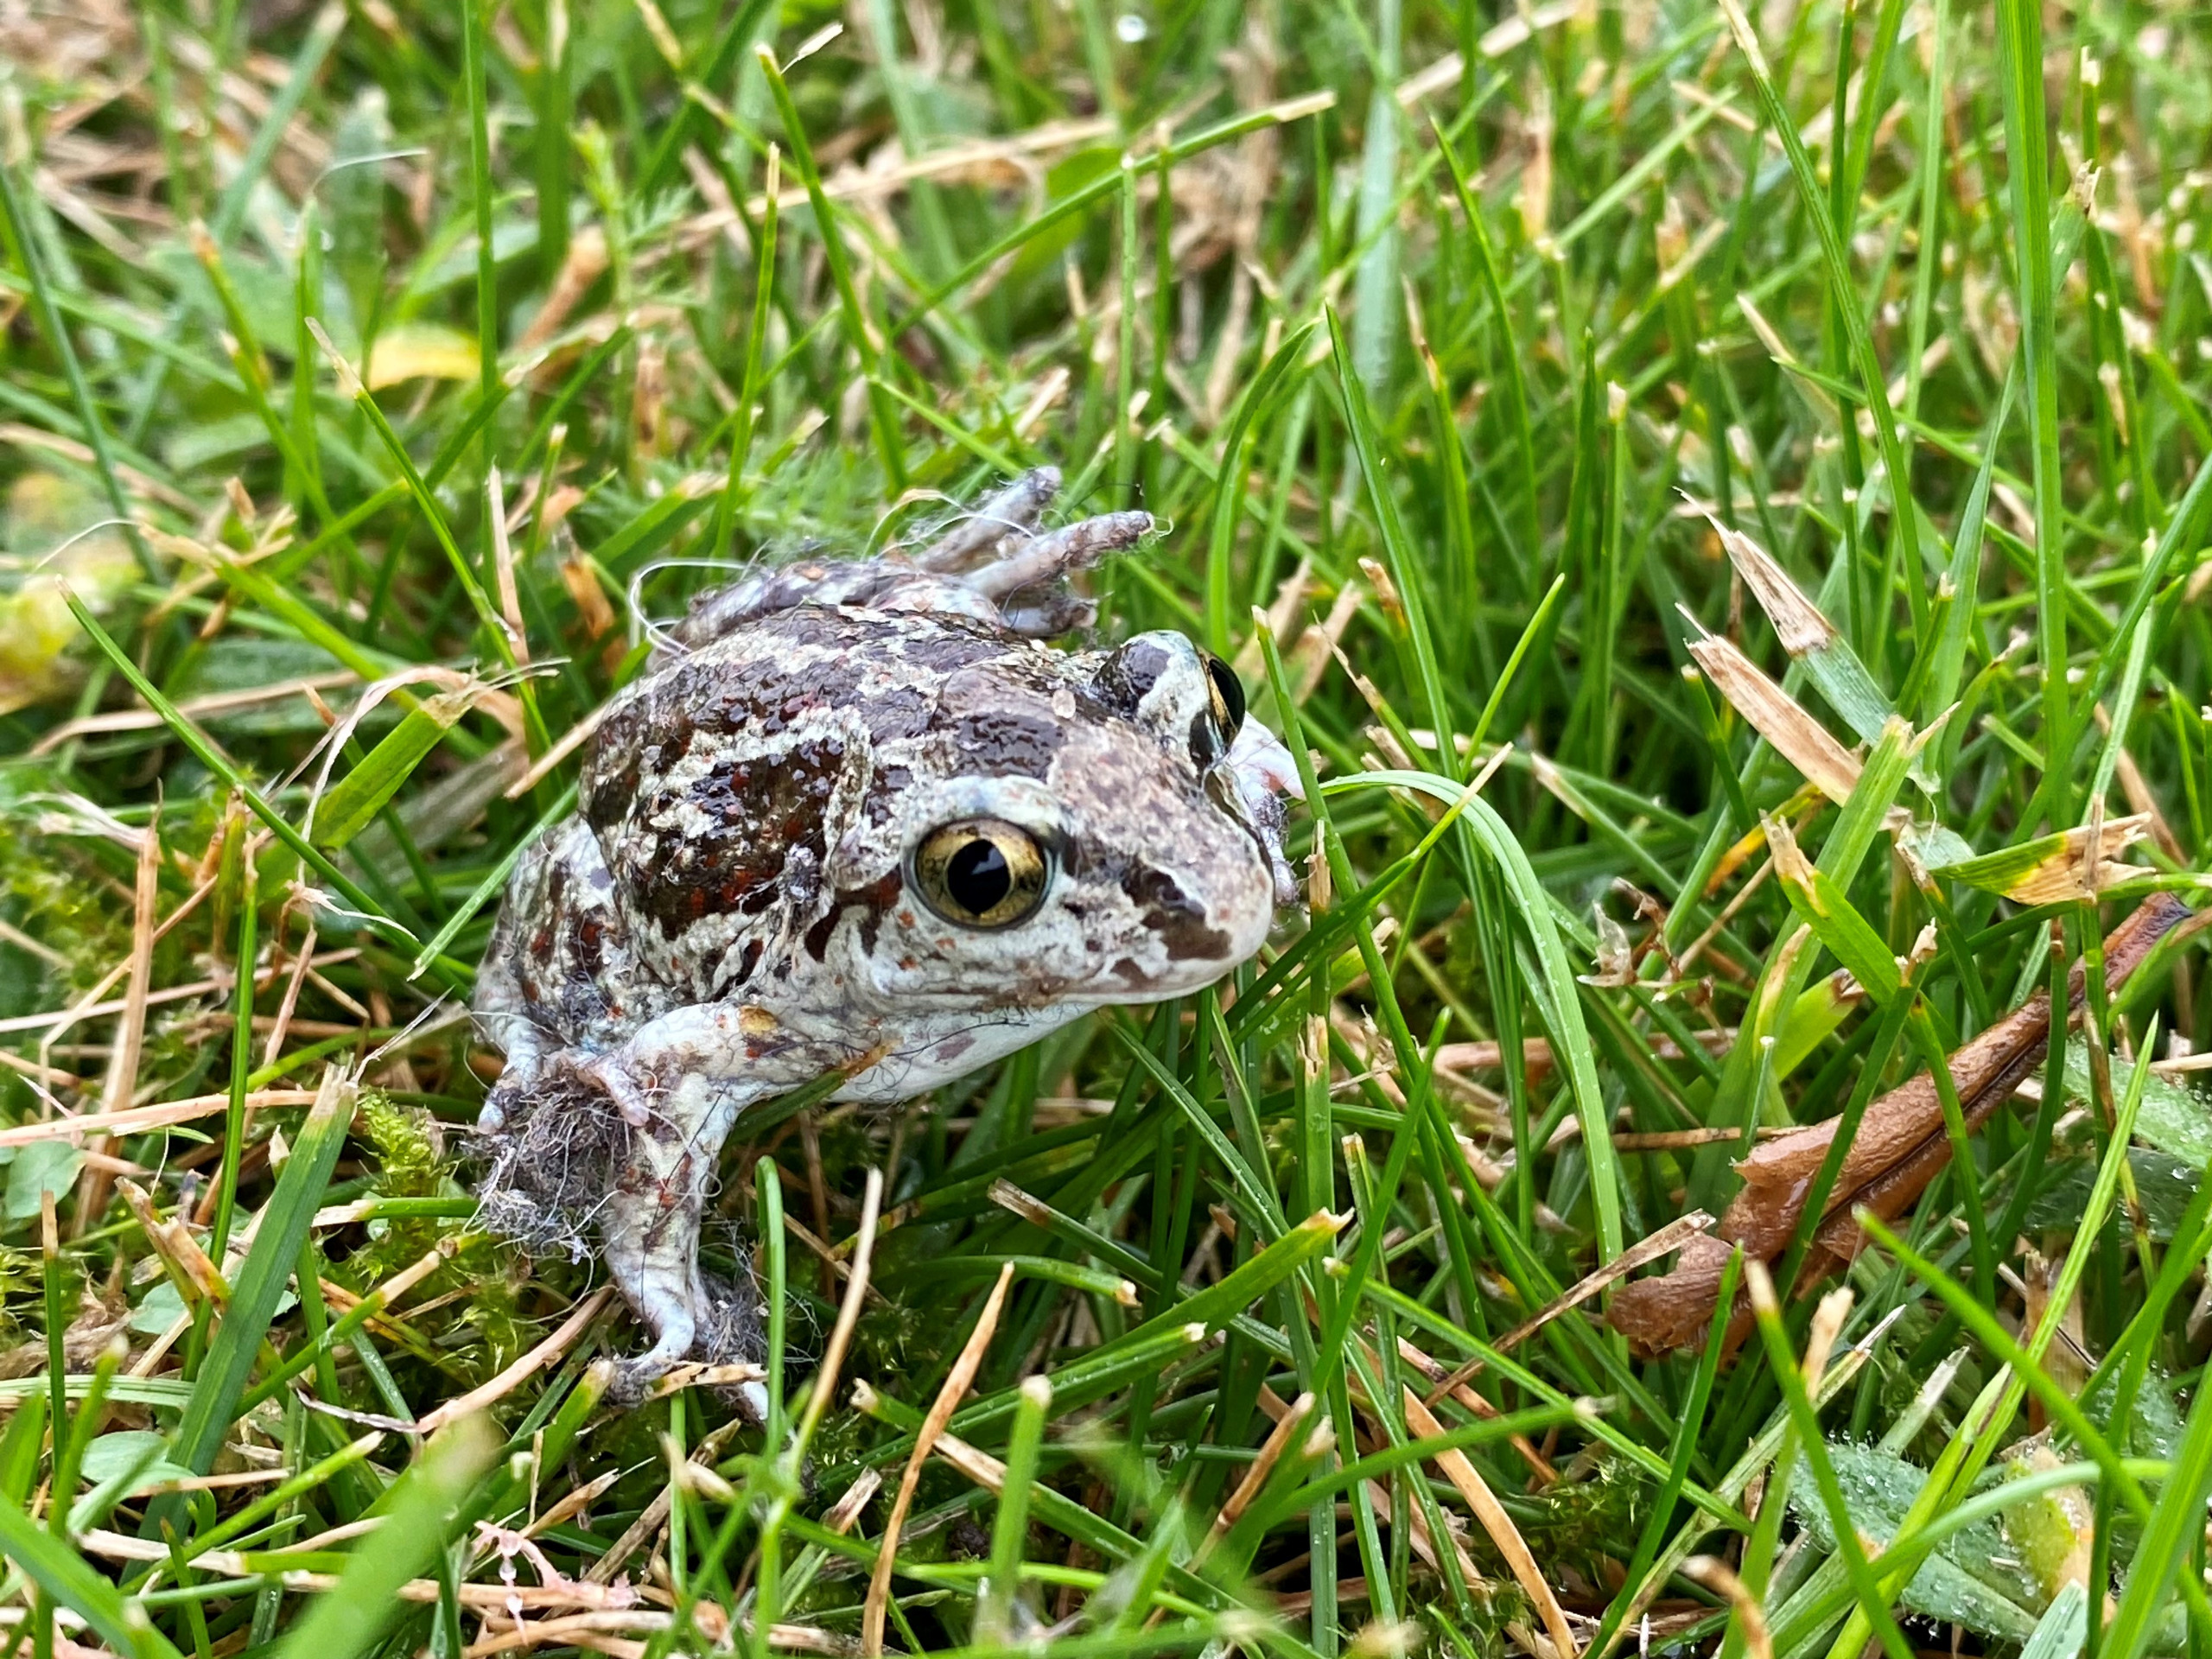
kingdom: Animalia
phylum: Chordata
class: Amphibia
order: Anura
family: Pelobatidae
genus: Pelobates
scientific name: Pelobates fuscus
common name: Løgfrø
